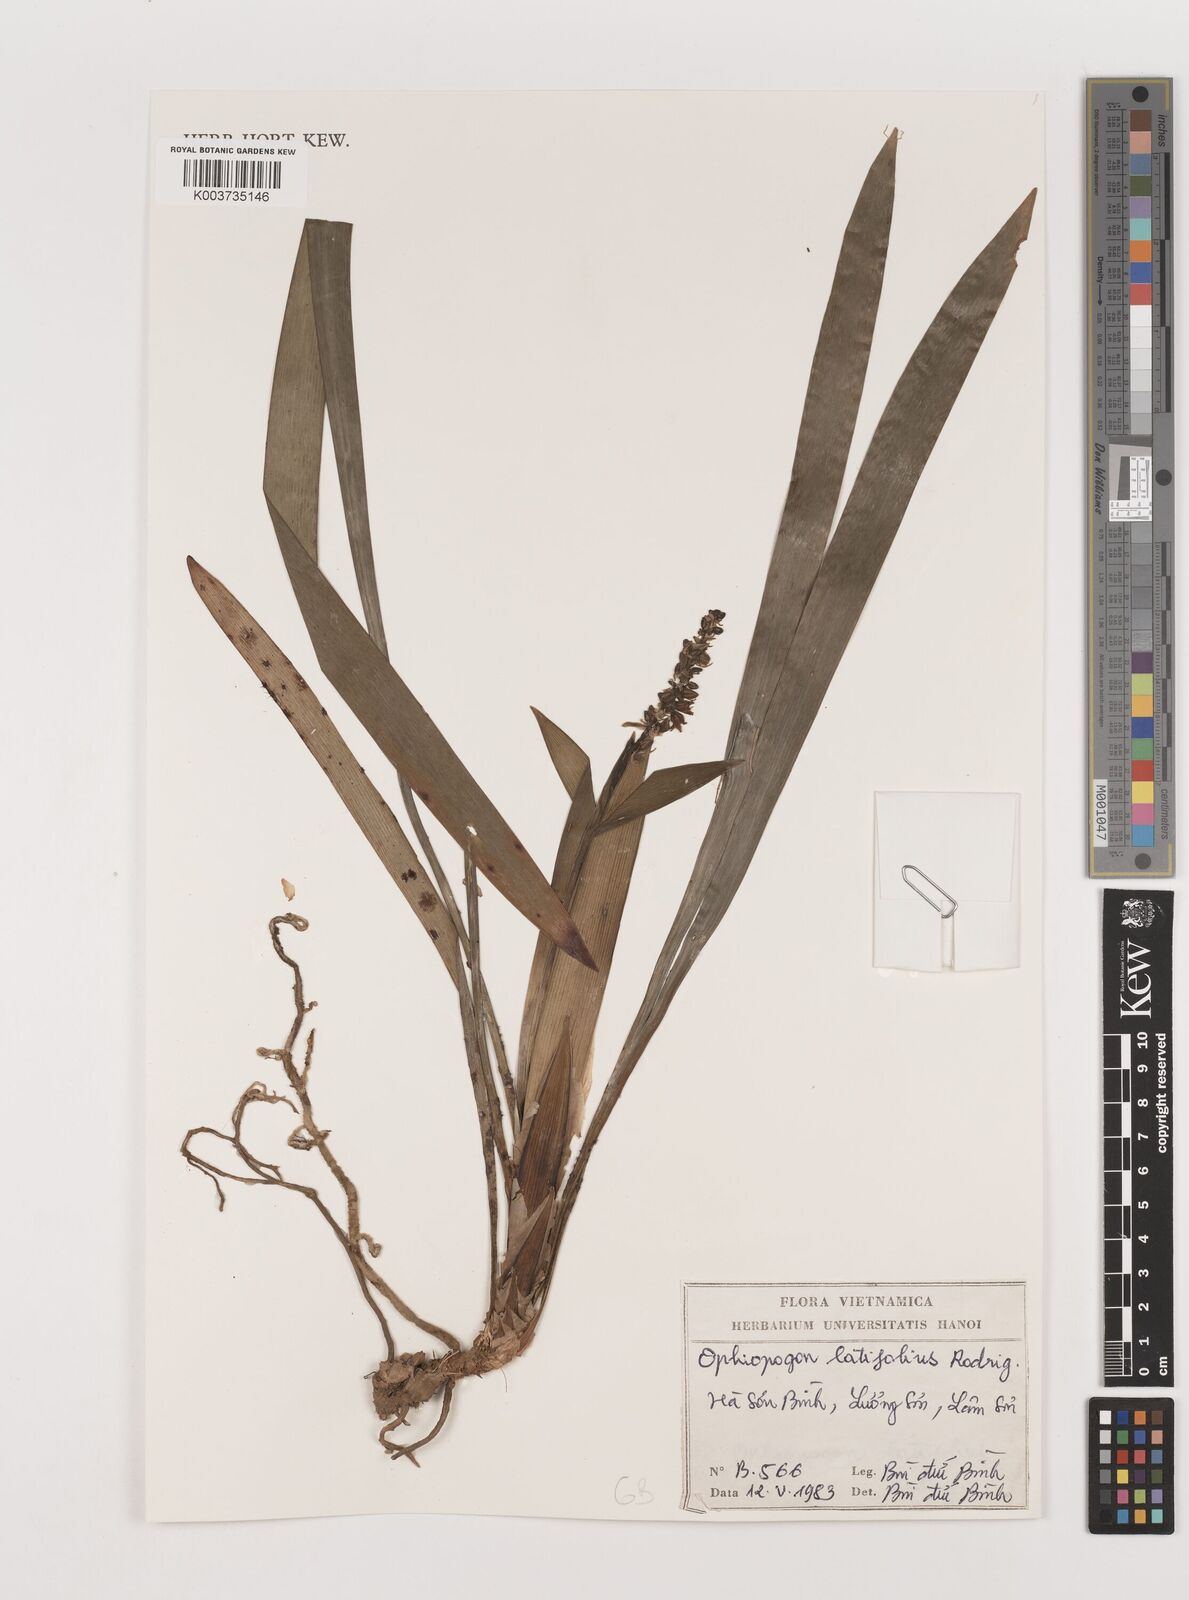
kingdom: Plantae
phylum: Tracheophyta
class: Liliopsida
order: Asparagales
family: Asparagaceae
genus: Ophiopogon
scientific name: Ophiopogon latifolius
